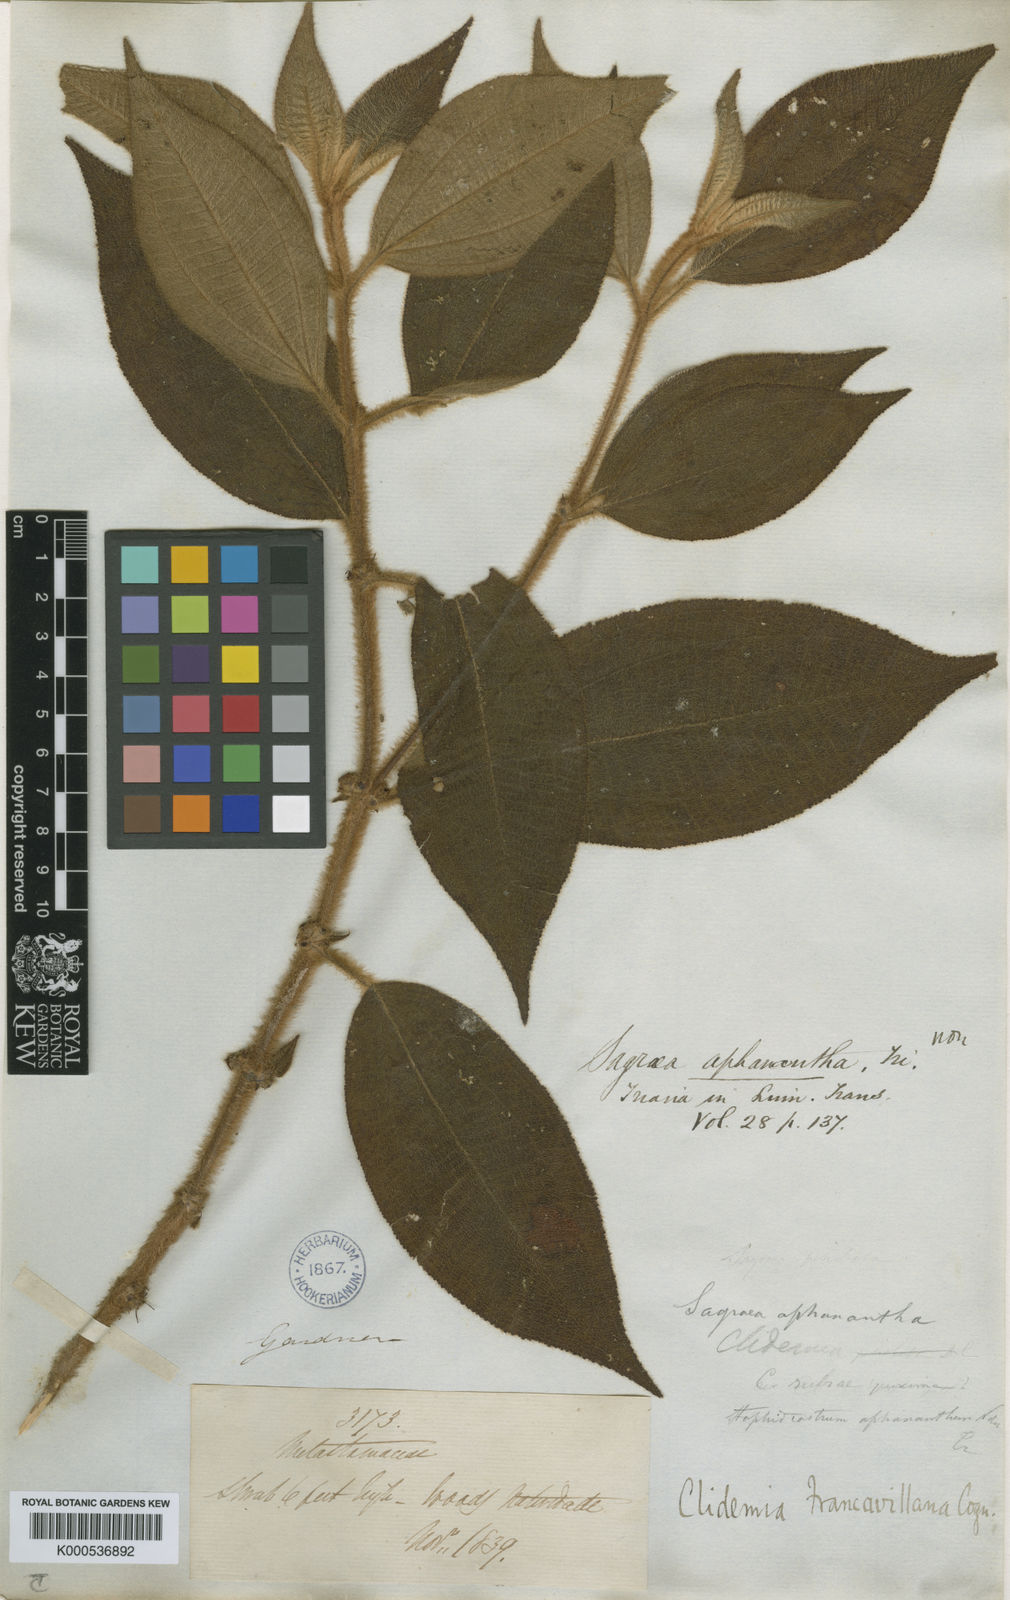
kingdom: Plantae
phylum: Tracheophyta
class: Magnoliopsida
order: Myrtales
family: Melastomataceae
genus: Miconia
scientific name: Miconia pseudodebilis
